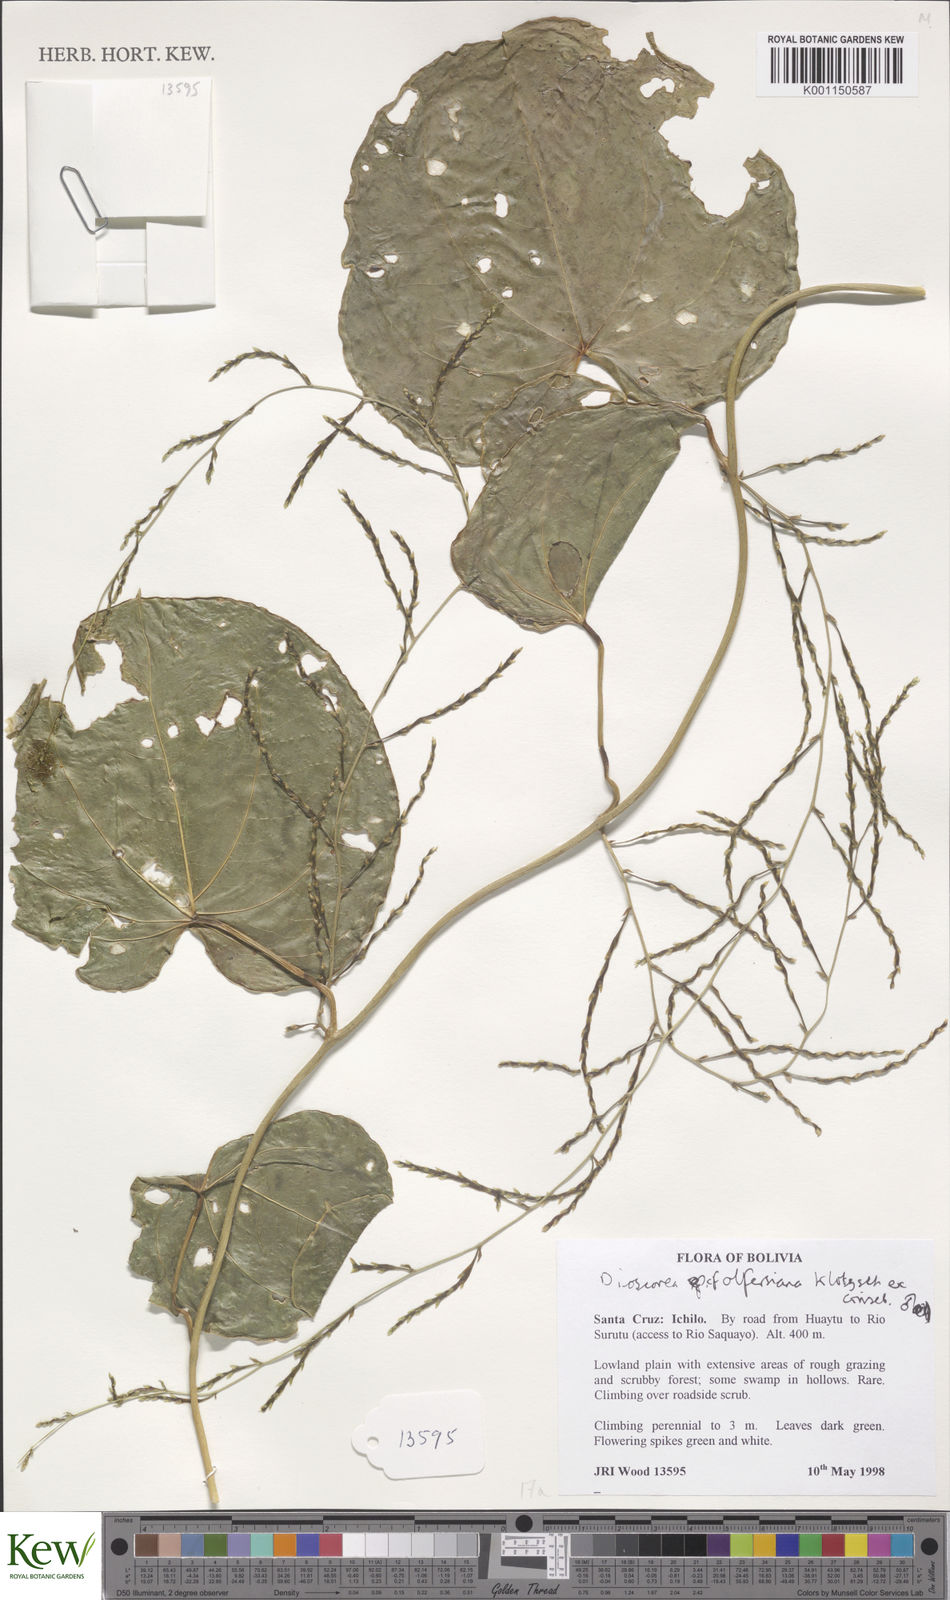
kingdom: Plantae
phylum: Tracheophyta
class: Liliopsida
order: Dioscoreales
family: Dioscoreaceae
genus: Dioscorea
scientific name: Dioscorea olfersiana
